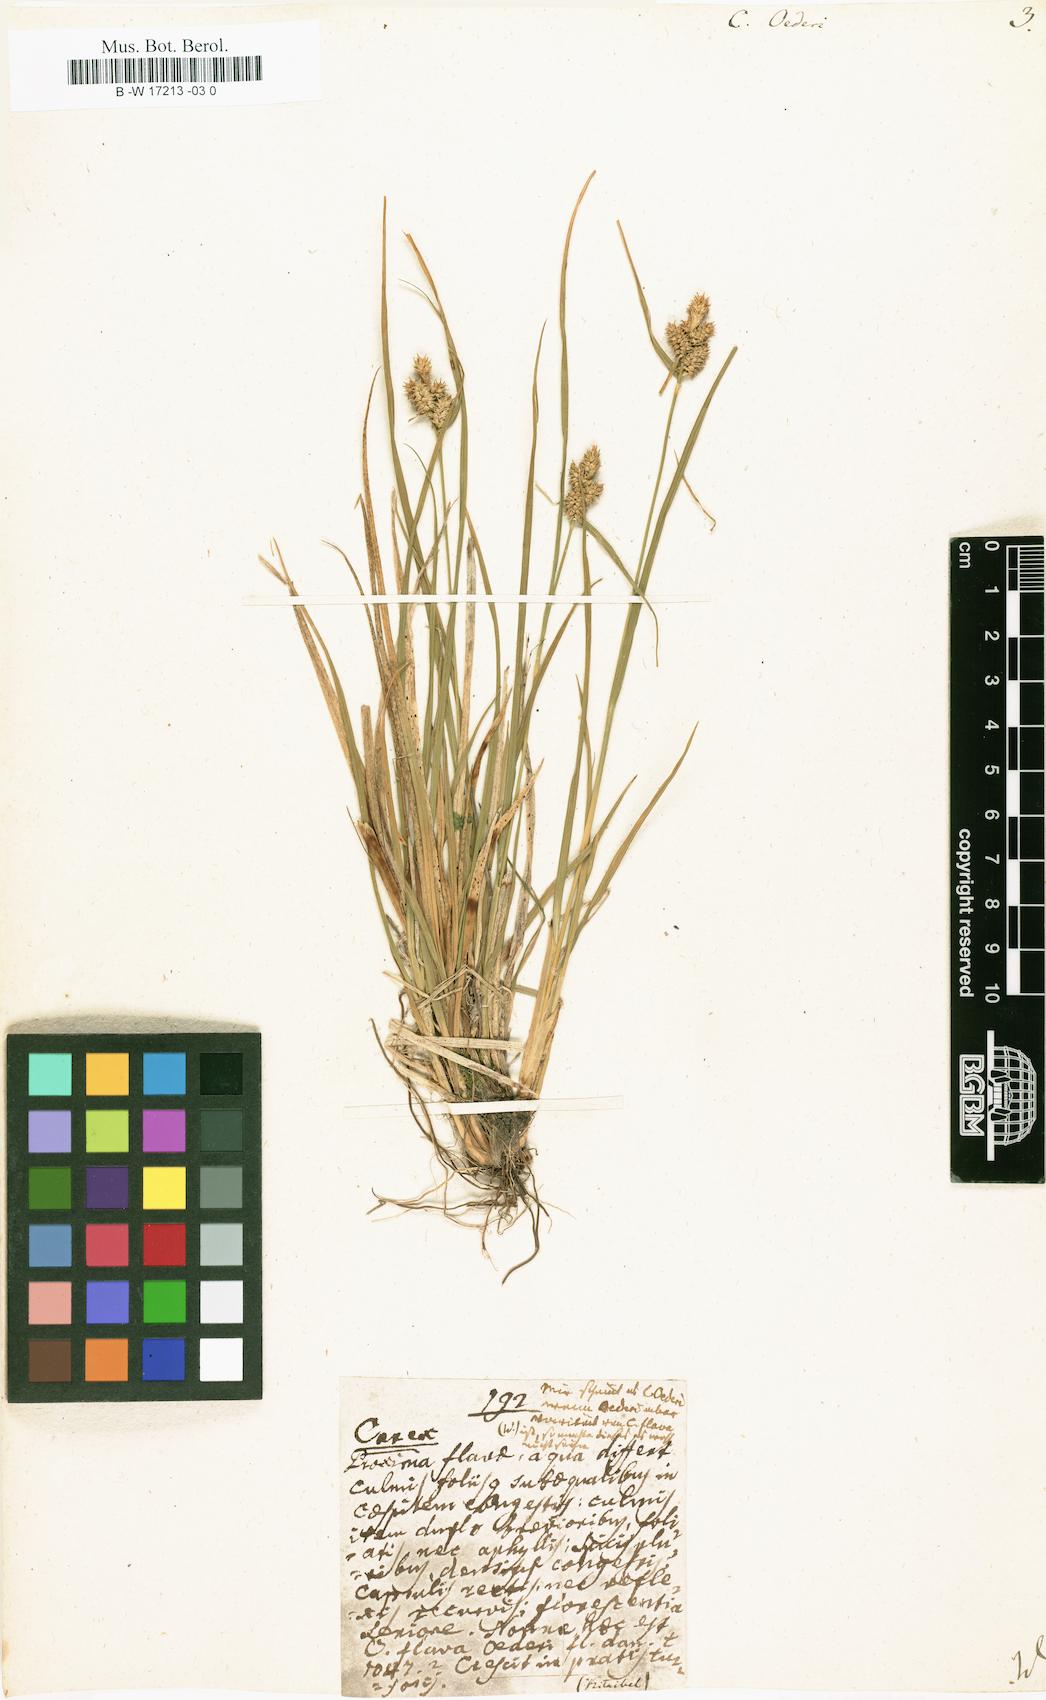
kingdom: Plantae
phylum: Tracheophyta
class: Liliopsida
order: Poales
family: Cyperaceae
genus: Carex
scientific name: Carex oederi
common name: Common & small-fruited yellow-sedge
